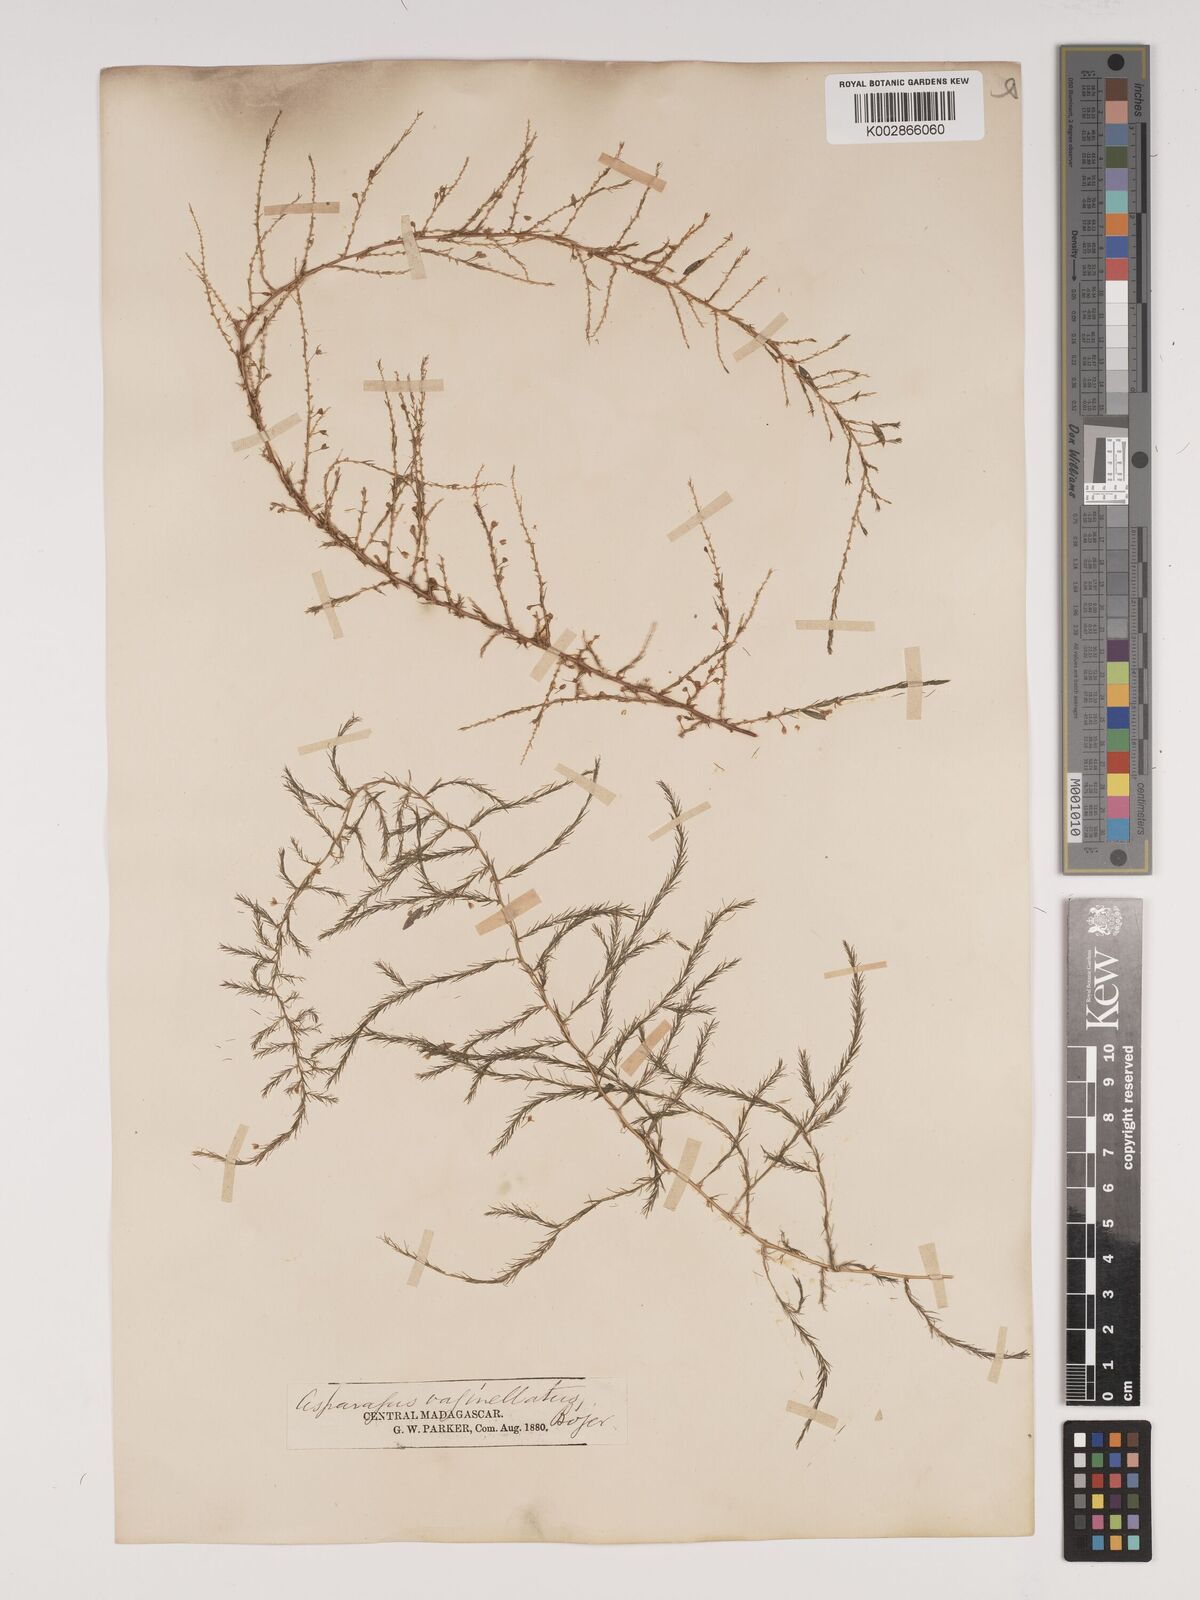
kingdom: Plantae
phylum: Tracheophyta
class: Liliopsida
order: Asparagales
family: Asparagaceae
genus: Asparagus
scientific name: Asparagus vaginellatus
